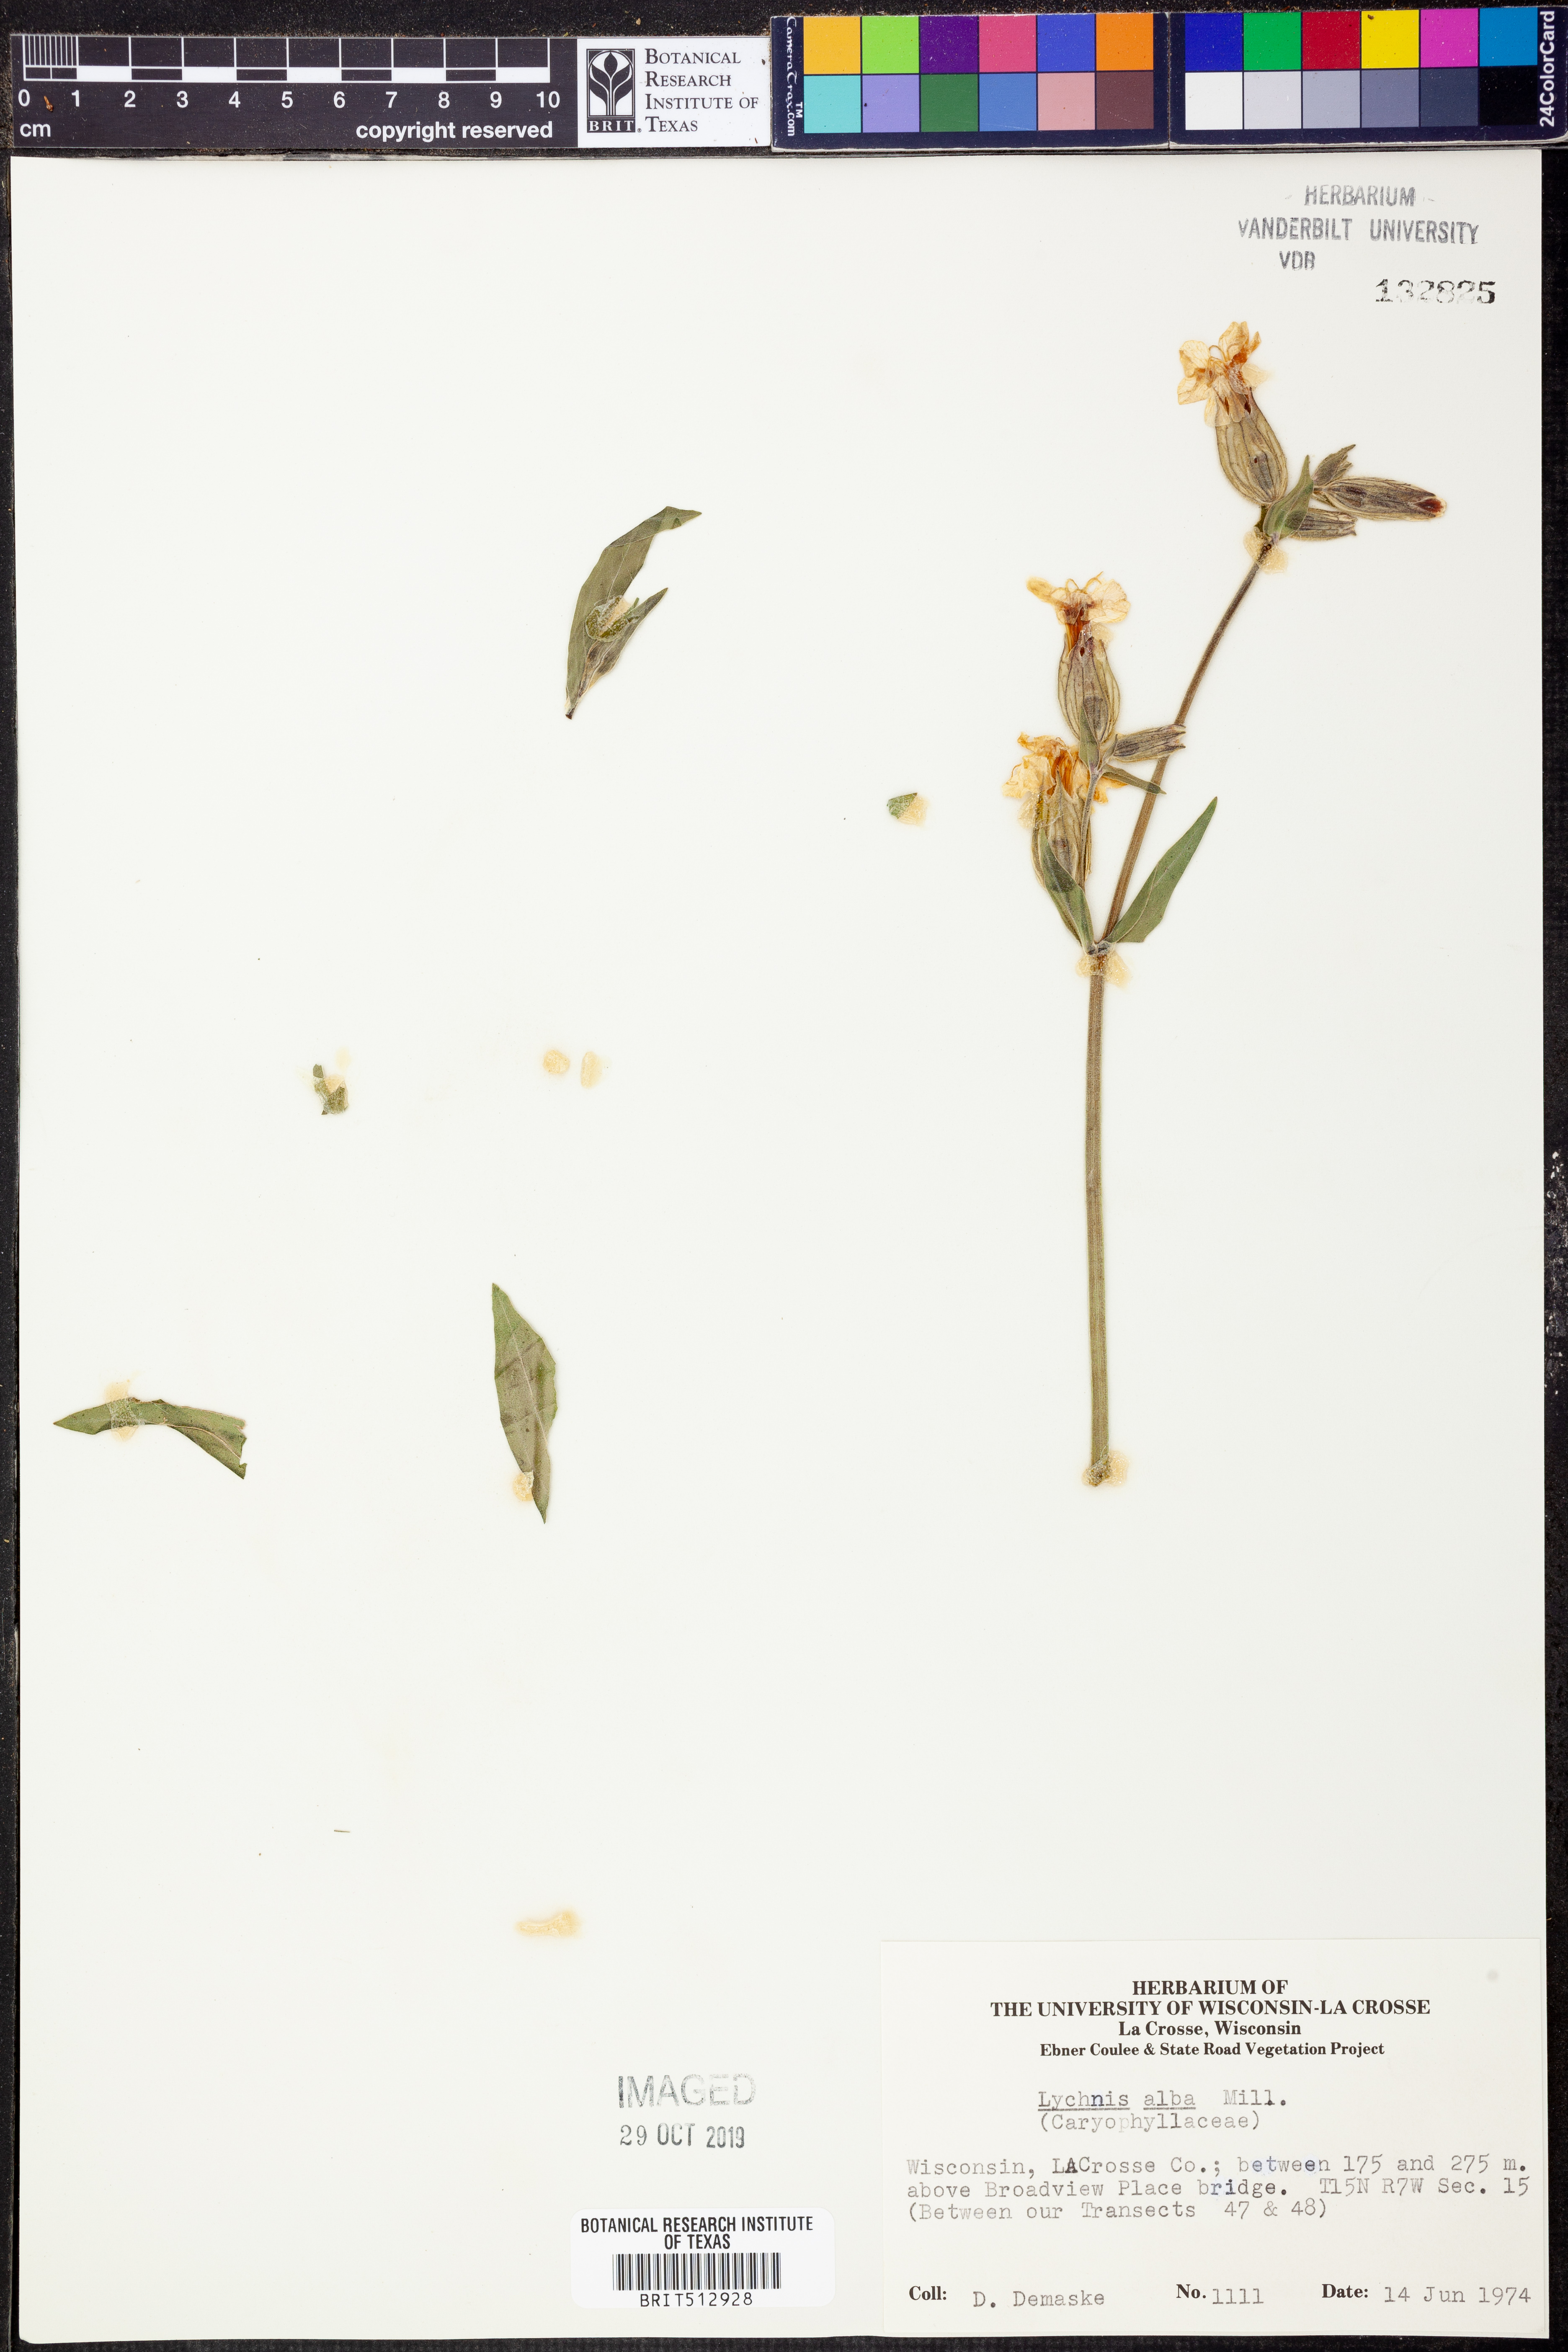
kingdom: Plantae
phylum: Tracheophyta
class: Magnoliopsida
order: Caryophyllales
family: Caryophyllaceae
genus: Silene
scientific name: Silene latifolia
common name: White campion
